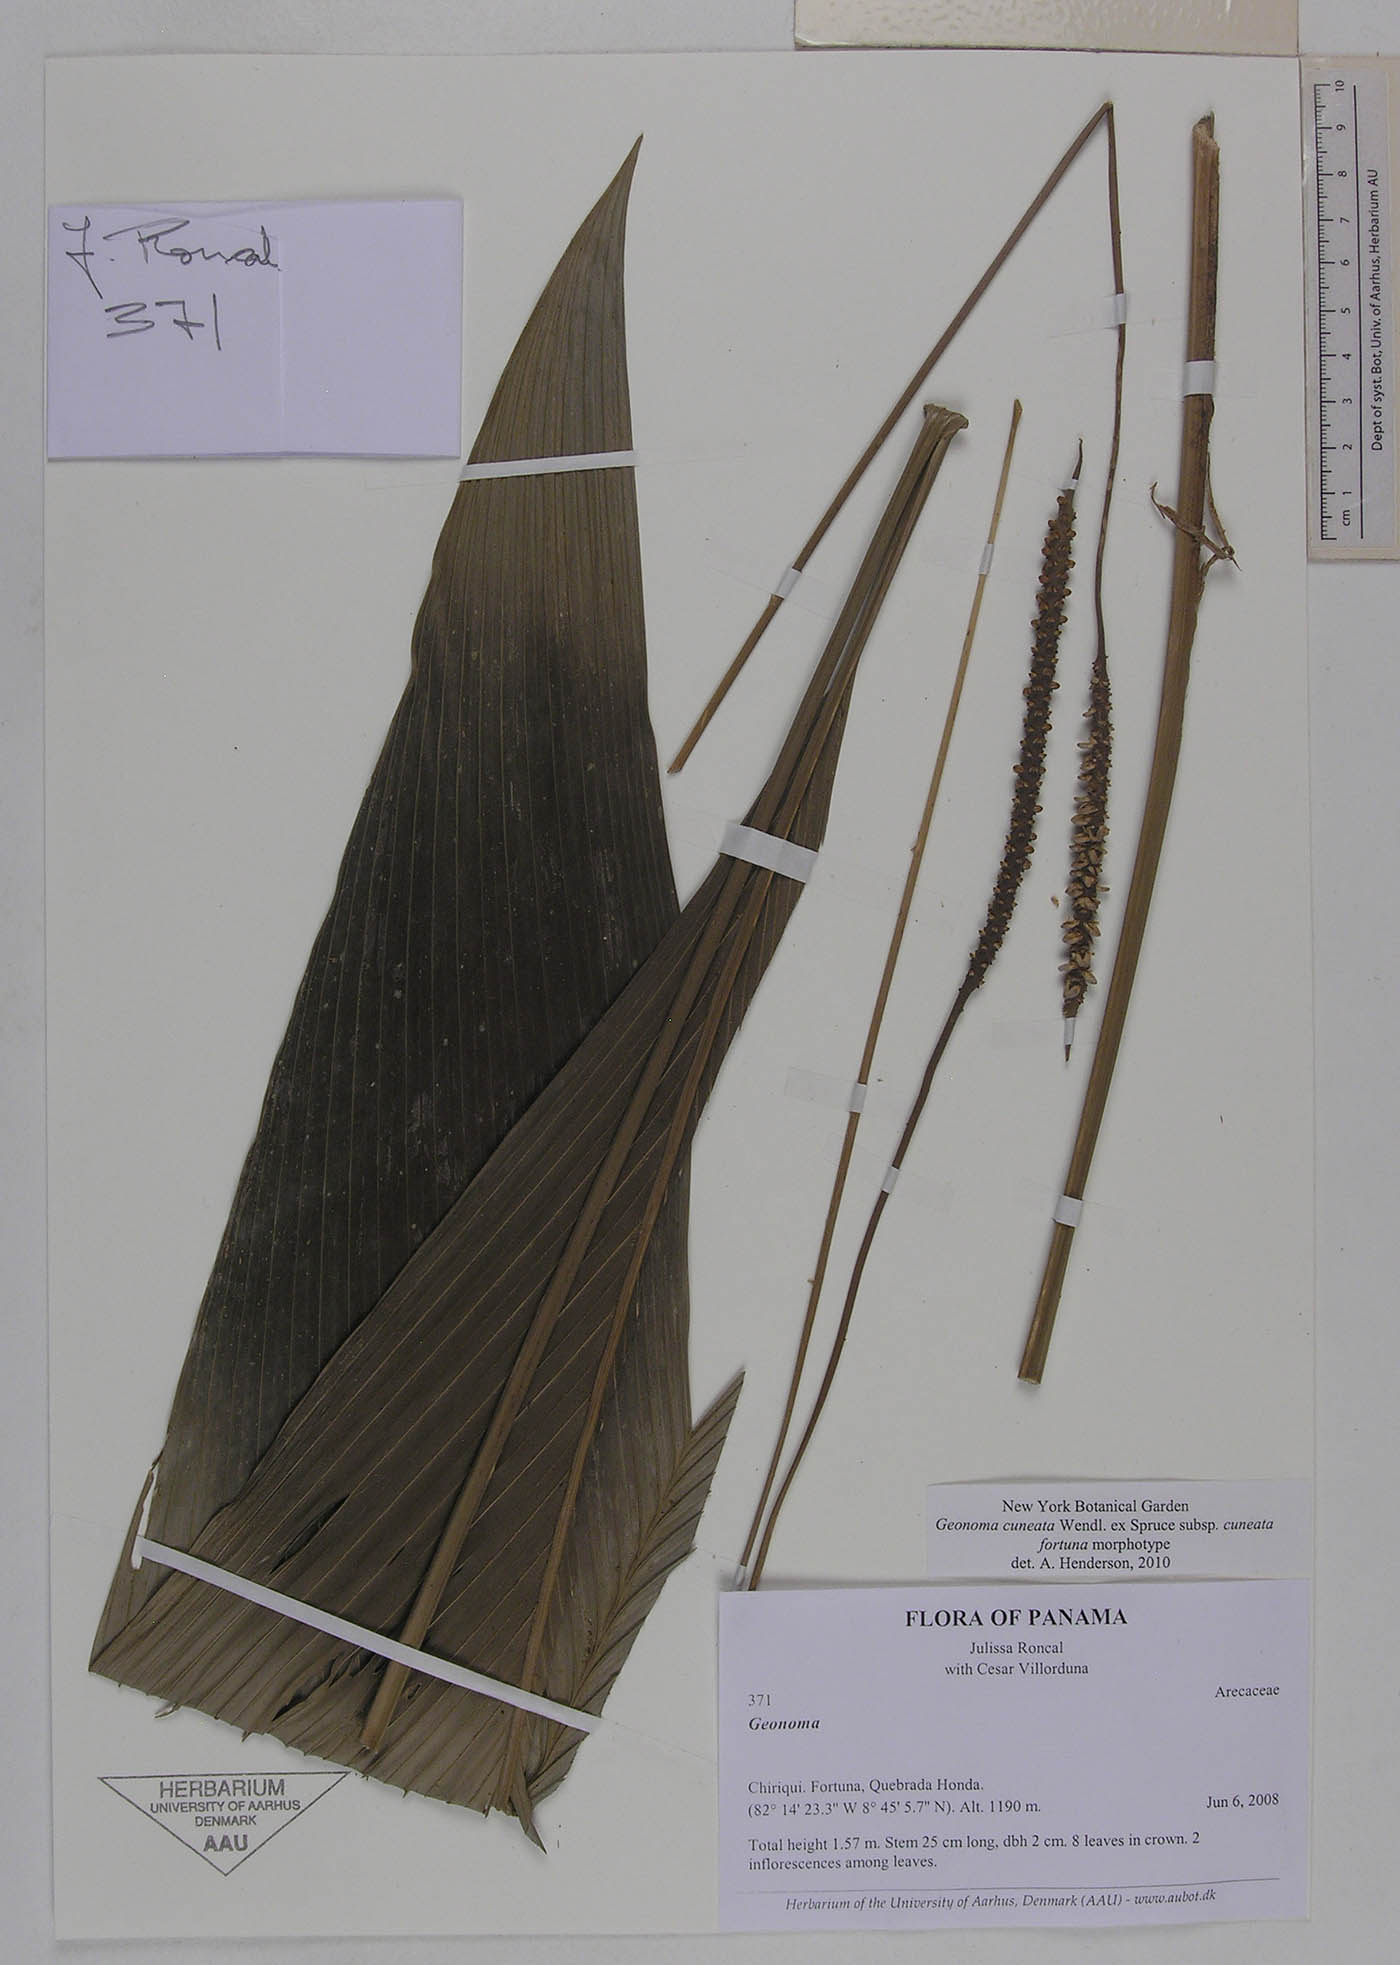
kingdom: Plantae
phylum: Tracheophyta
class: Liliopsida
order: Arecales
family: Arecaceae
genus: Geonoma
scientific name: Geonoma cuneata
